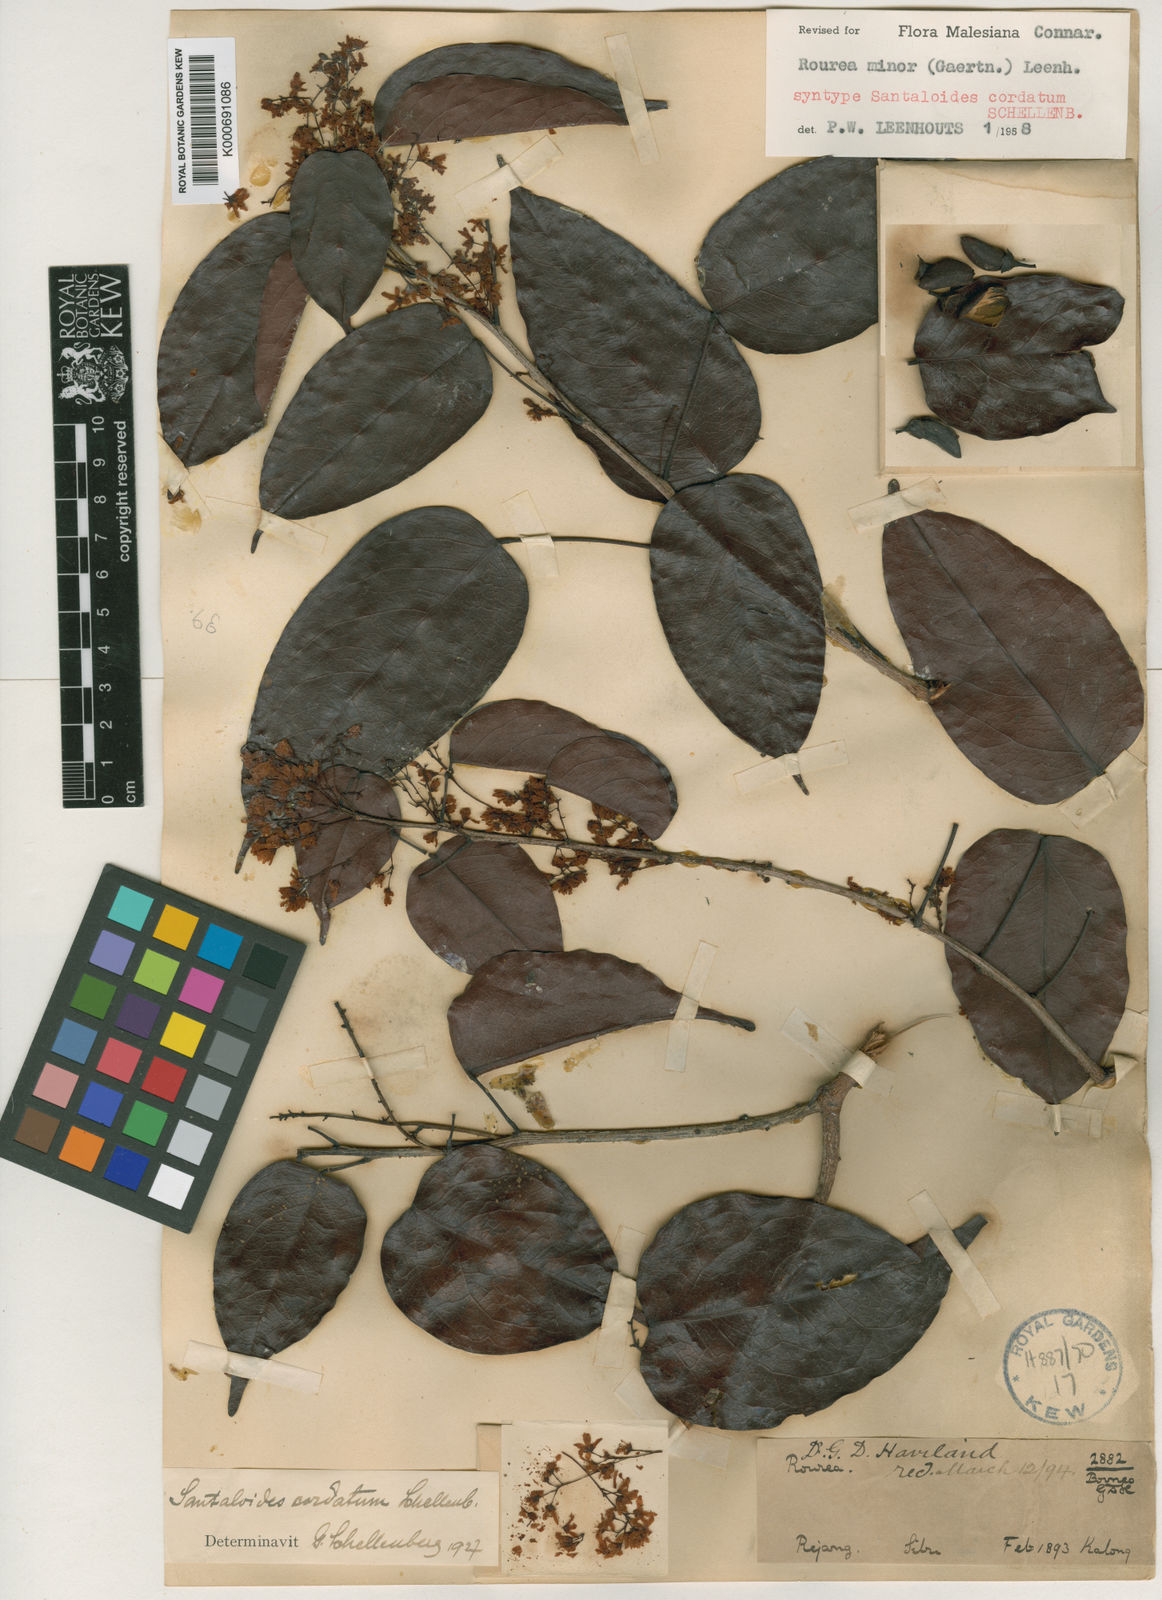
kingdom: Plantae
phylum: Tracheophyta
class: Magnoliopsida
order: Oxalidales
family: Connaraceae
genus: Rourea
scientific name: Rourea
